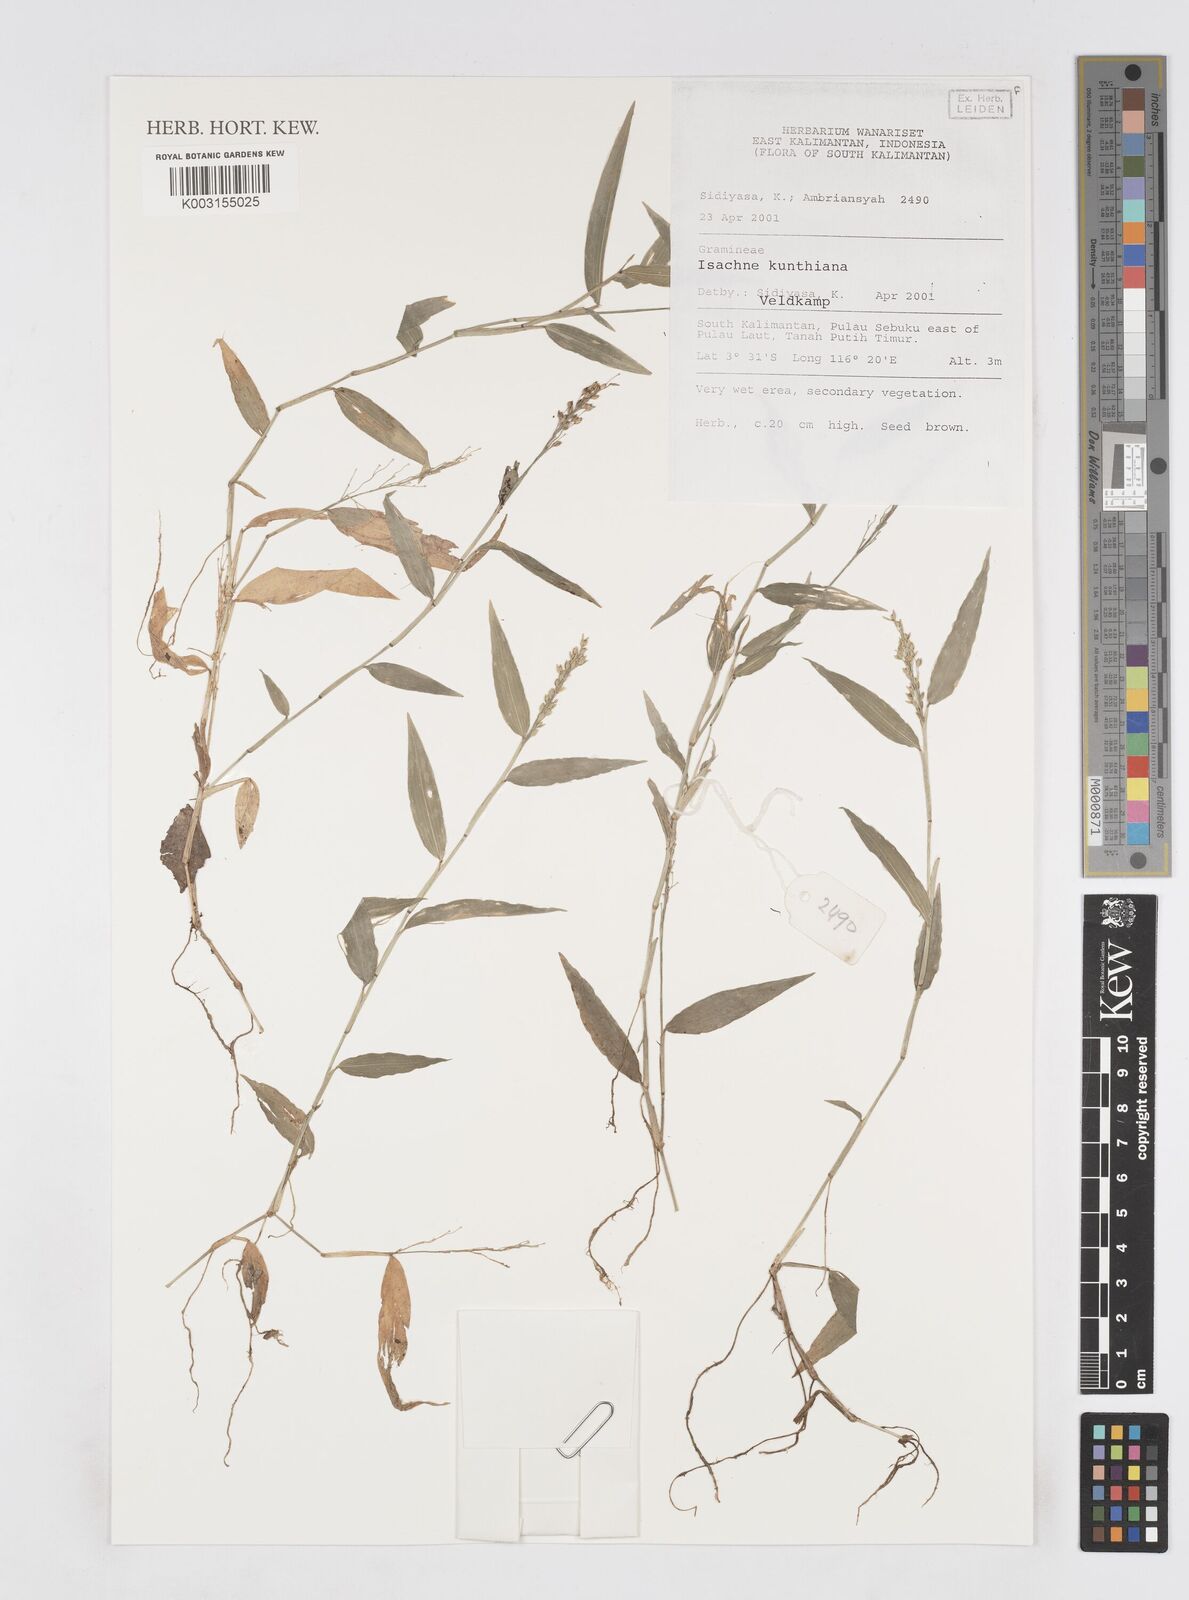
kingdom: Plantae
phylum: Tracheophyta
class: Liliopsida
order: Poales
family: Poaceae
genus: Isachne
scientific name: Isachne kunthiana
